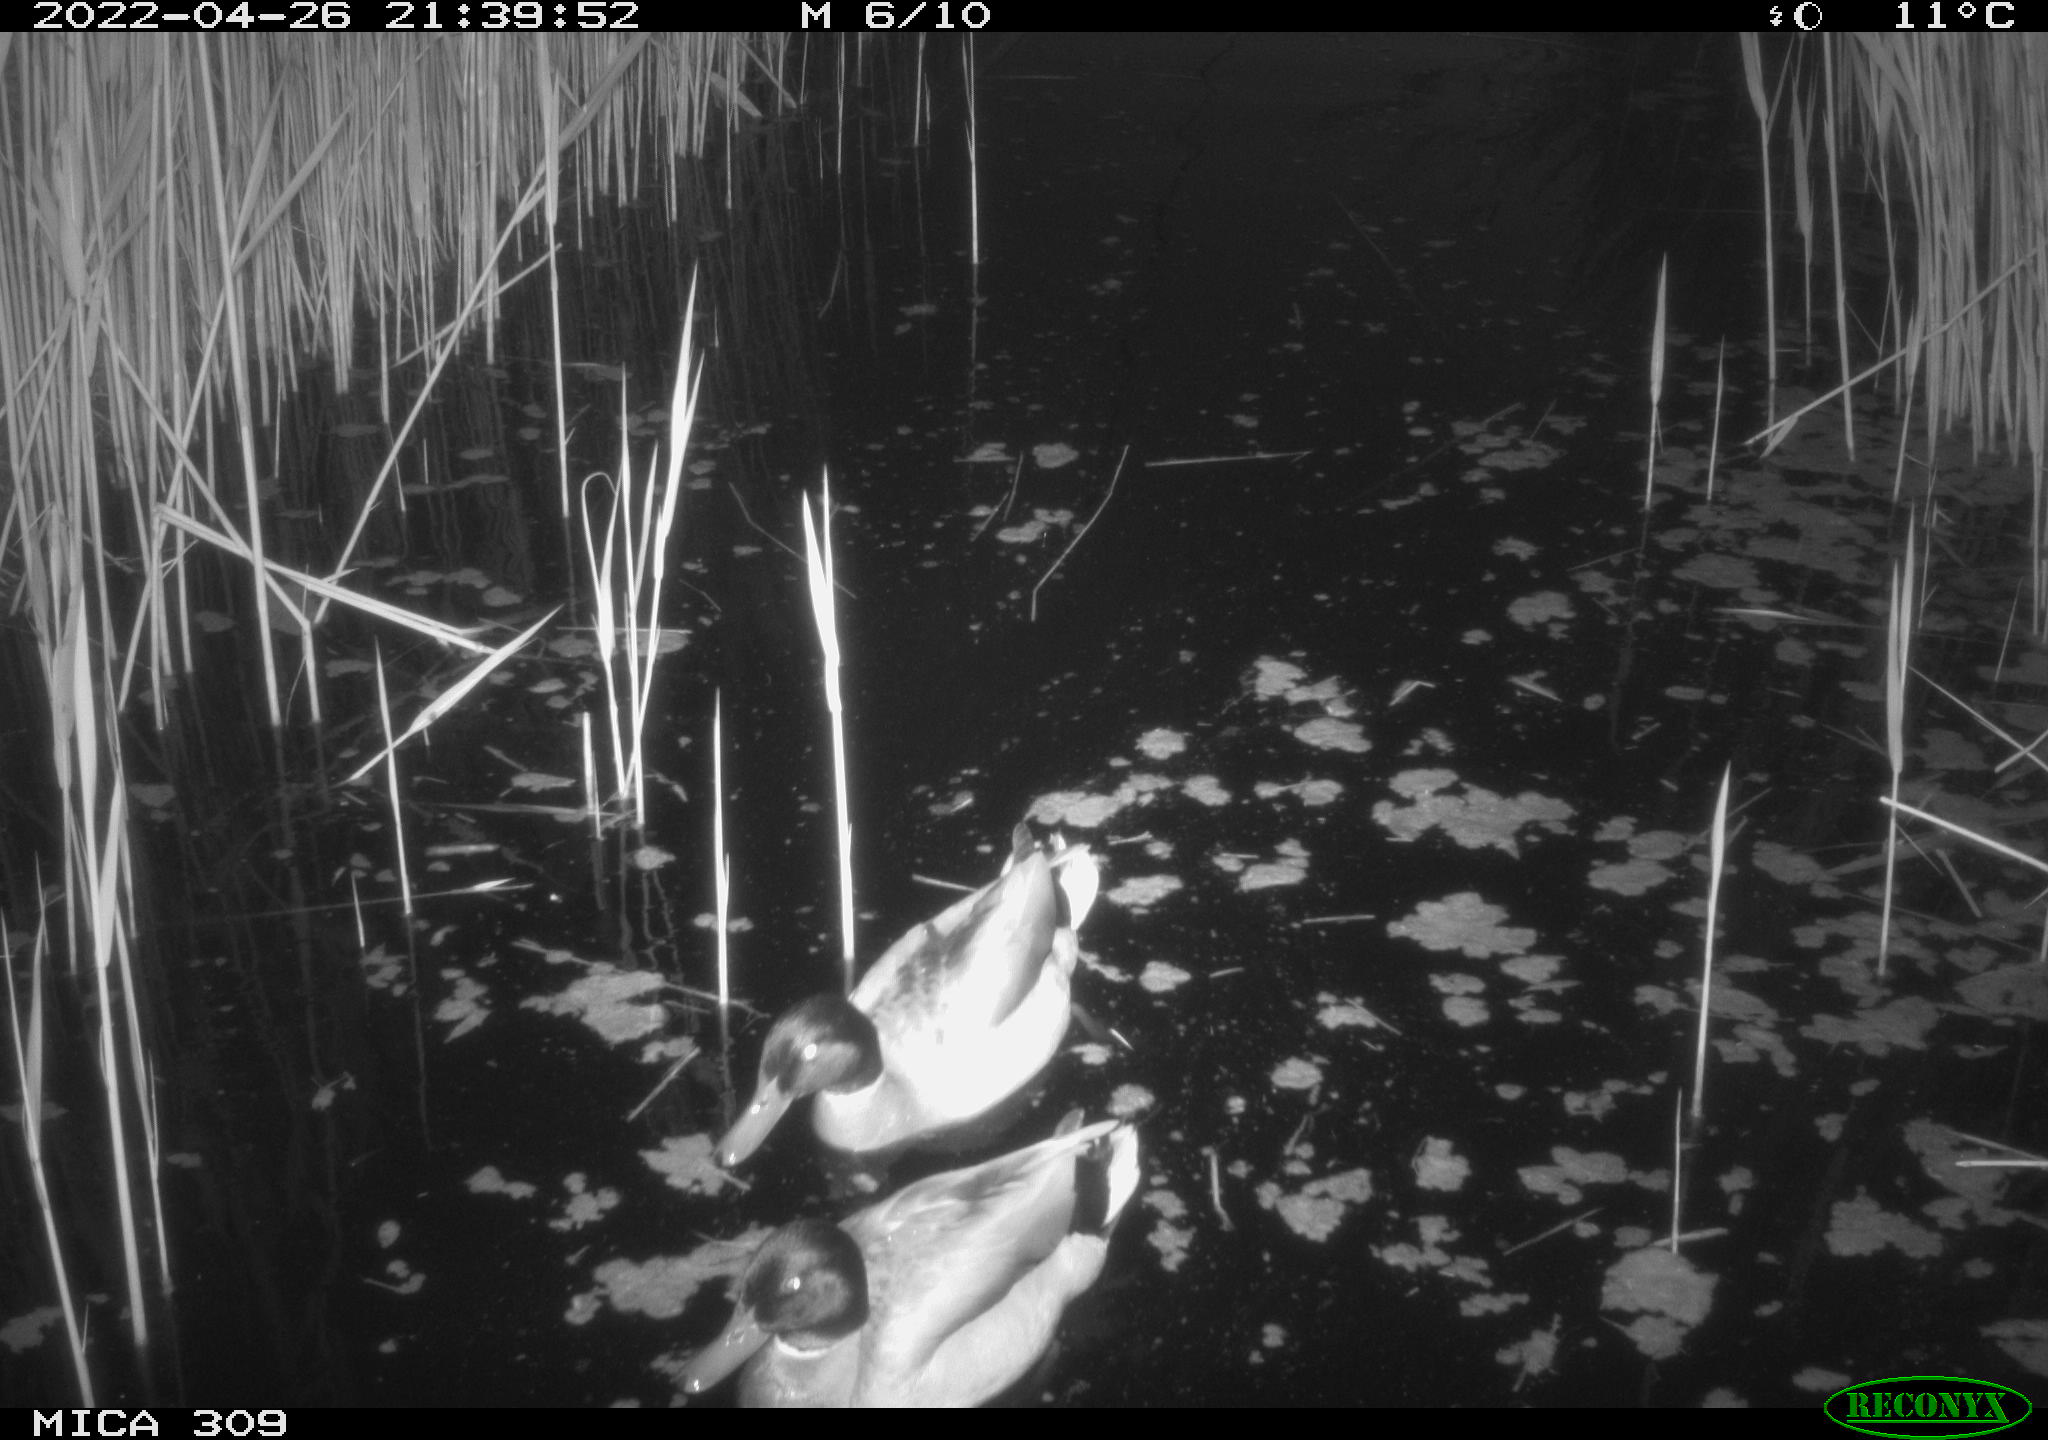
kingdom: Animalia
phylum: Chordata
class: Aves
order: Anseriformes
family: Anatidae
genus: Anas
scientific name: Anas platyrhynchos
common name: Mallard
